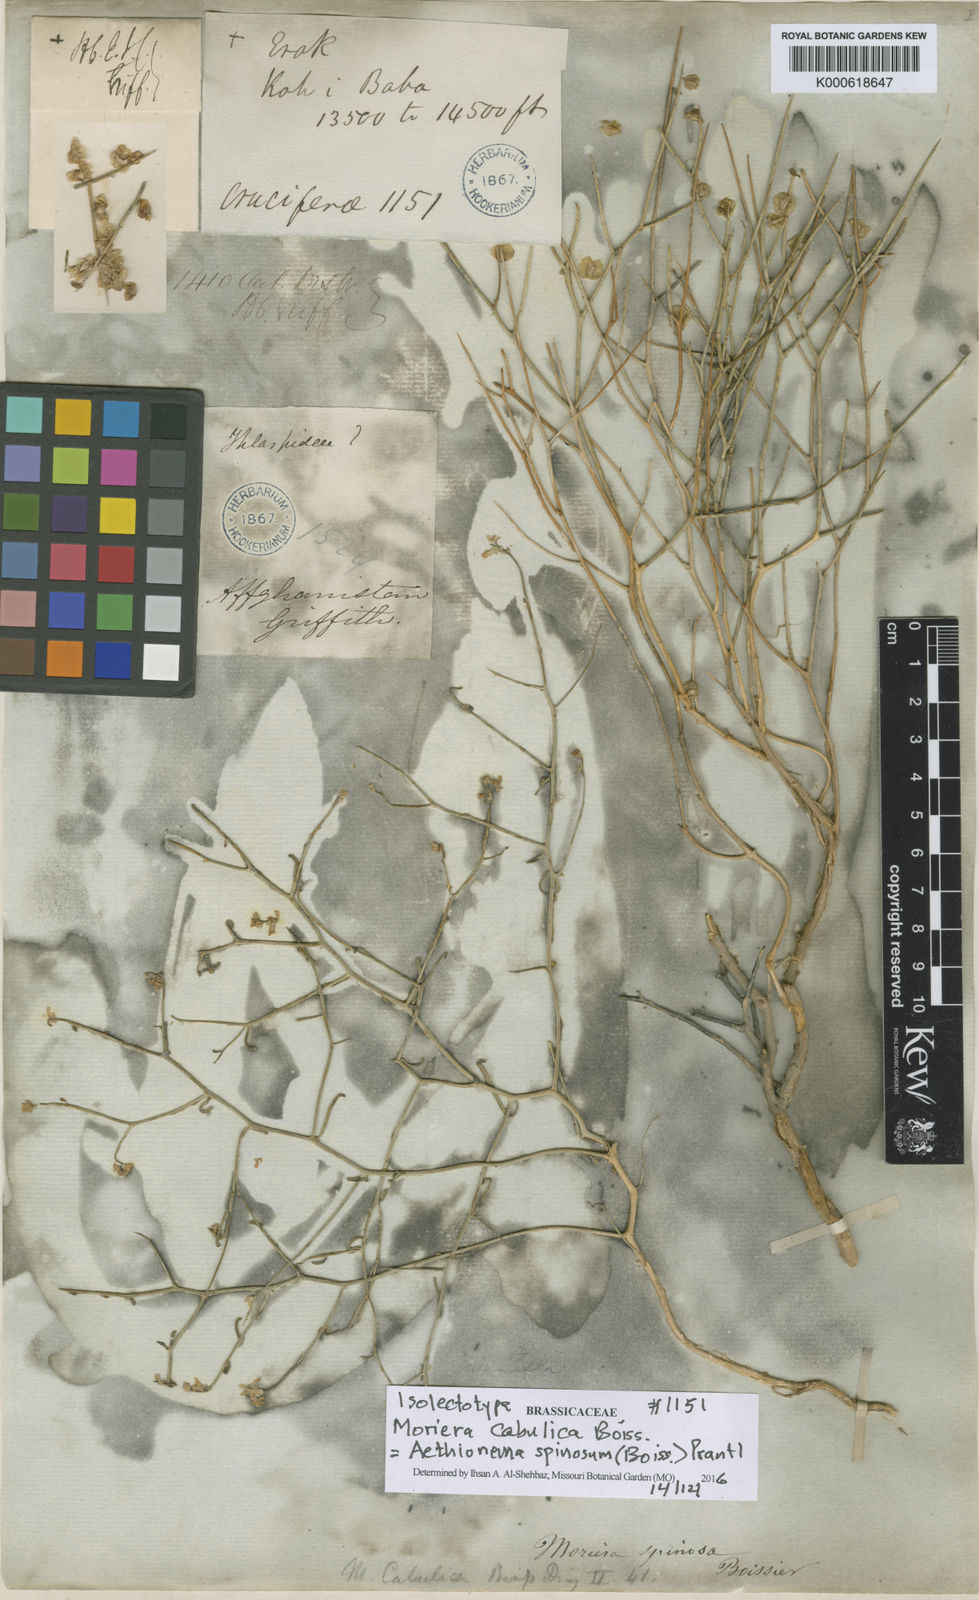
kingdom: Plantae
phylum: Tracheophyta
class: Magnoliopsida
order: Brassicales
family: Brassicaceae
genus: Aethionema
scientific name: Aethionema spinosum
